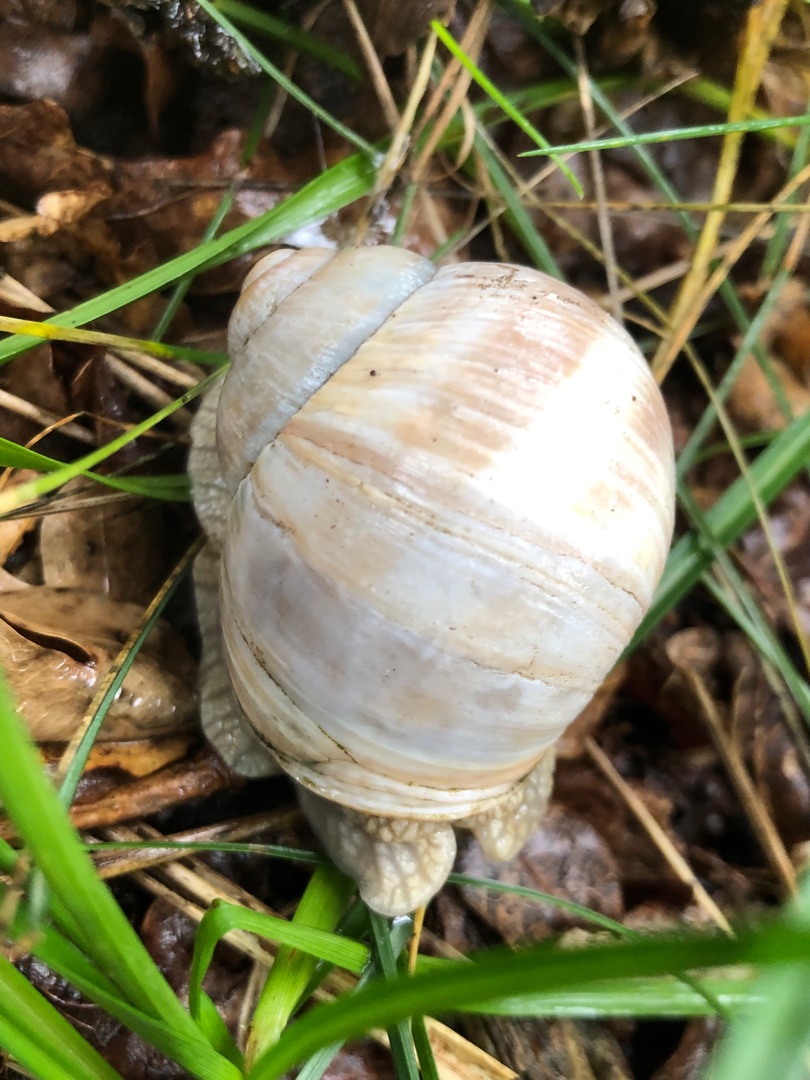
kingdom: Animalia
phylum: Mollusca
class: Gastropoda
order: Stylommatophora
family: Helicidae
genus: Helix
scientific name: Helix pomatia
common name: Vinbjergsnegl
